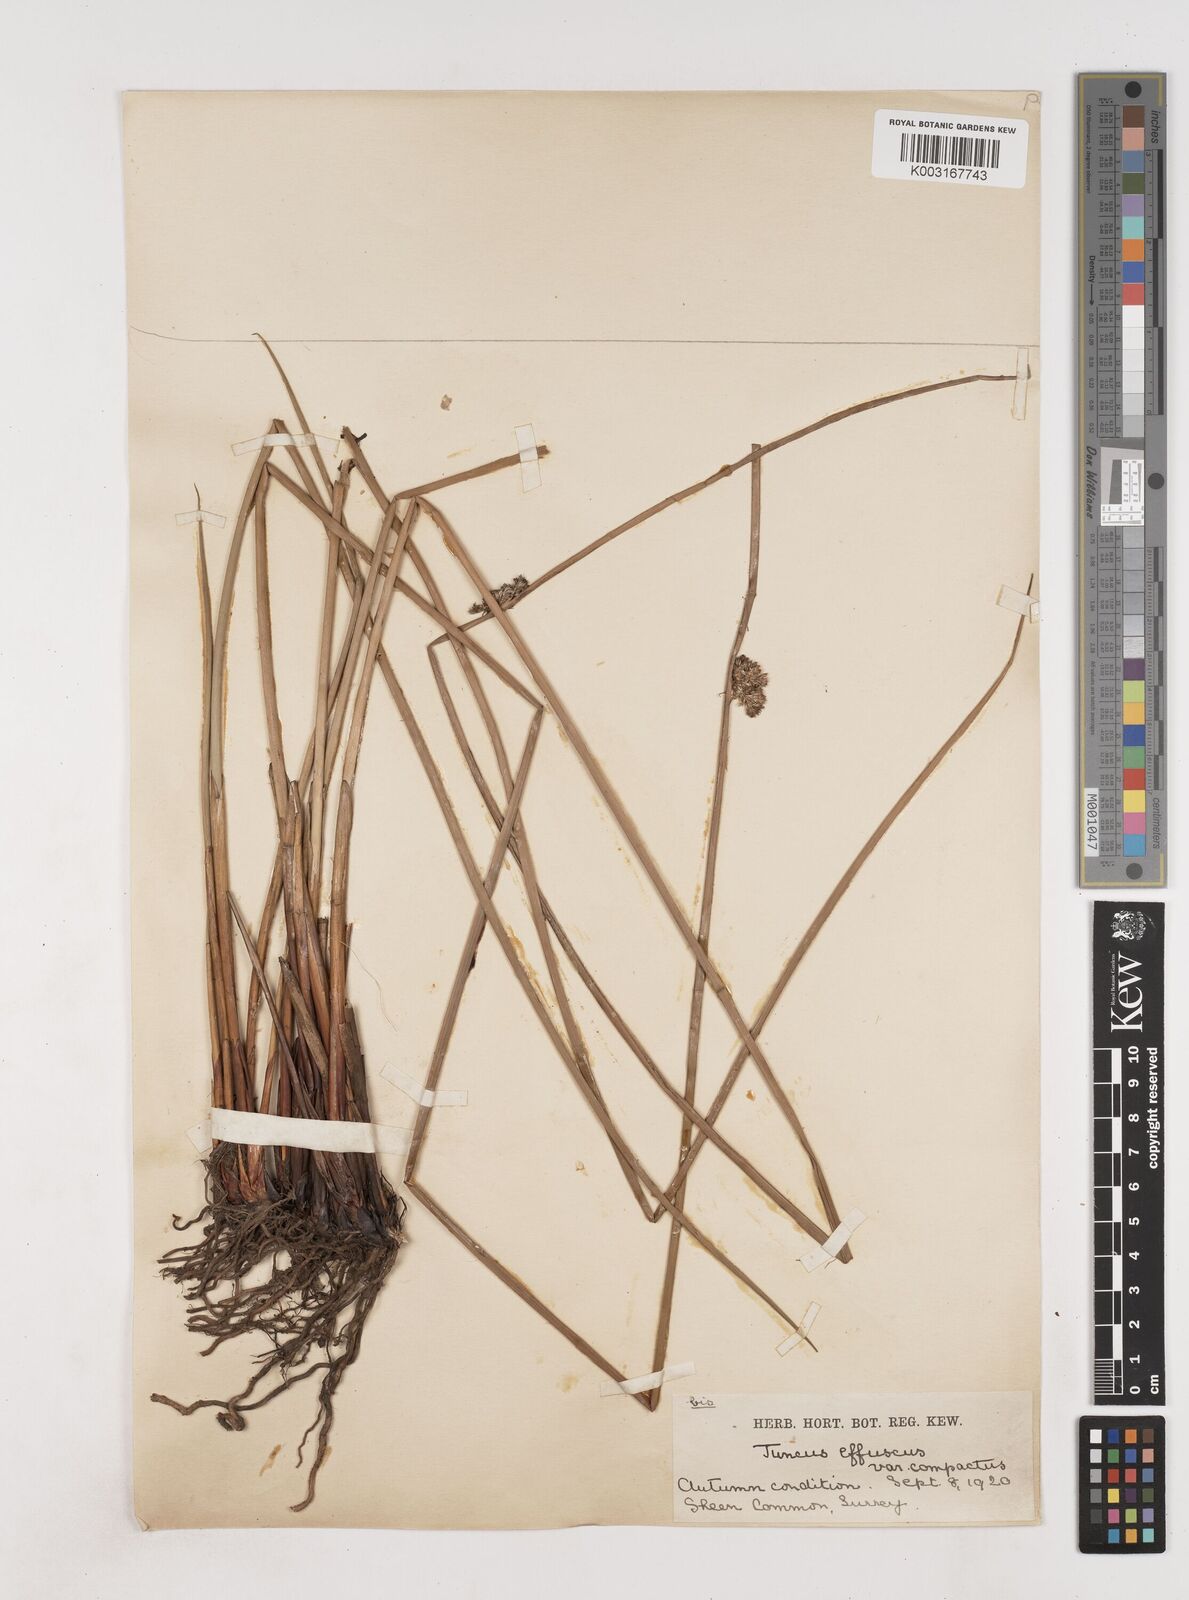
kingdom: Plantae
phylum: Tracheophyta
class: Liliopsida
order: Poales
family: Juncaceae
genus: Juncus
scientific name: Juncus effusus
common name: Soft rush
